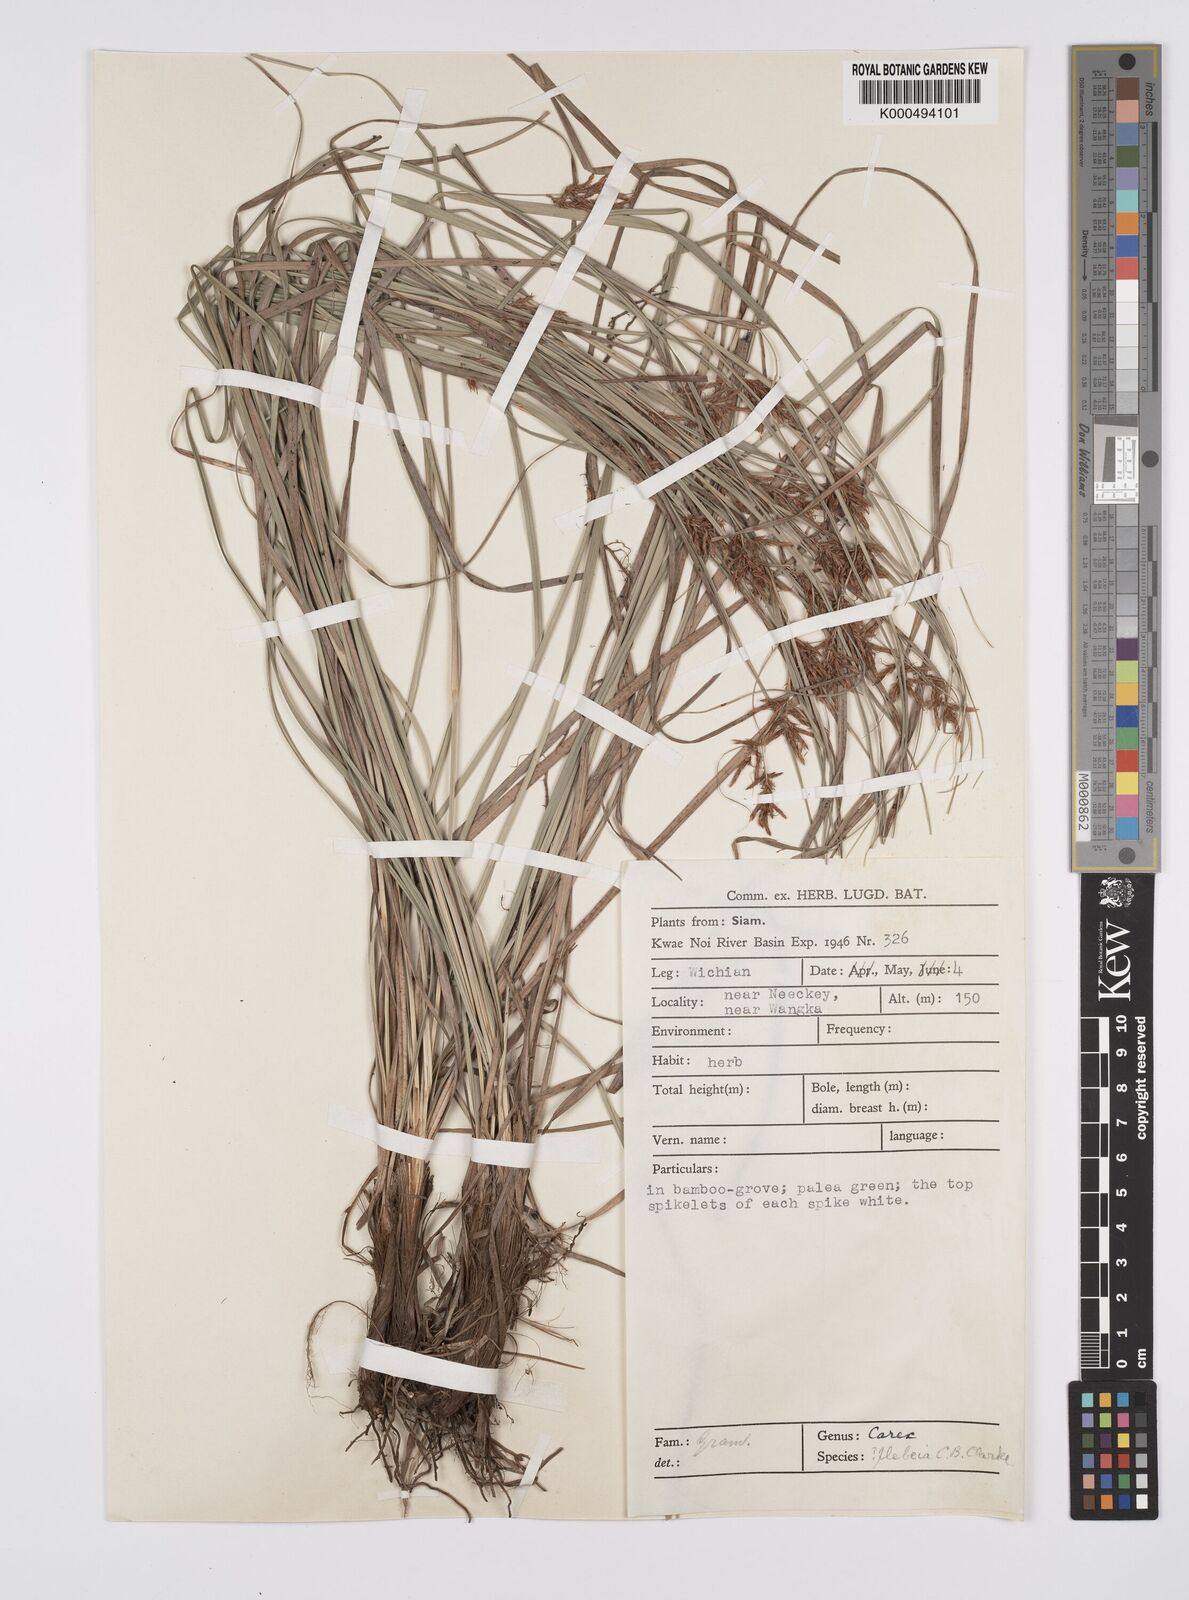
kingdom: Plantae
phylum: Tracheophyta
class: Liliopsida
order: Poales
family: Cyperaceae
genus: Carex
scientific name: Carex continua
